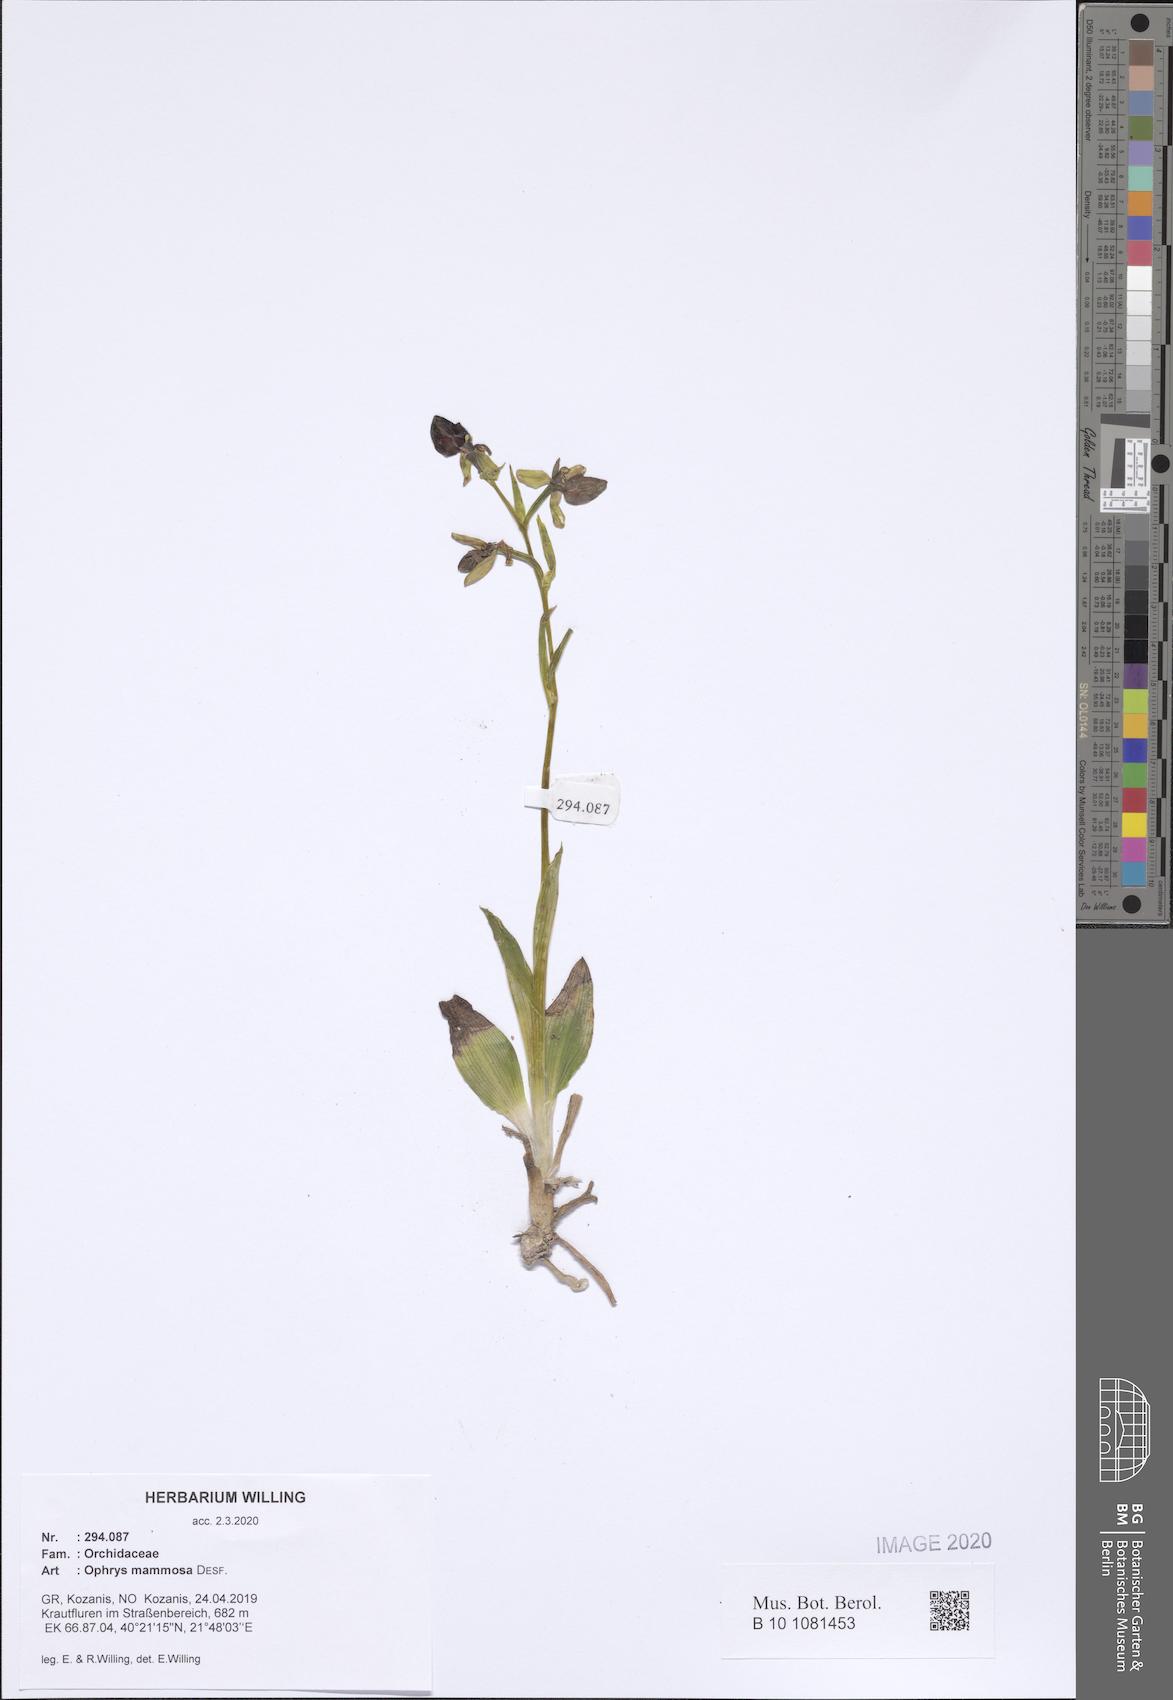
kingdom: Plantae
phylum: Tracheophyta
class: Liliopsida
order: Asparagales
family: Orchidaceae
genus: Ophrys
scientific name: Ophrys sphegodes
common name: Early spider-orchid
